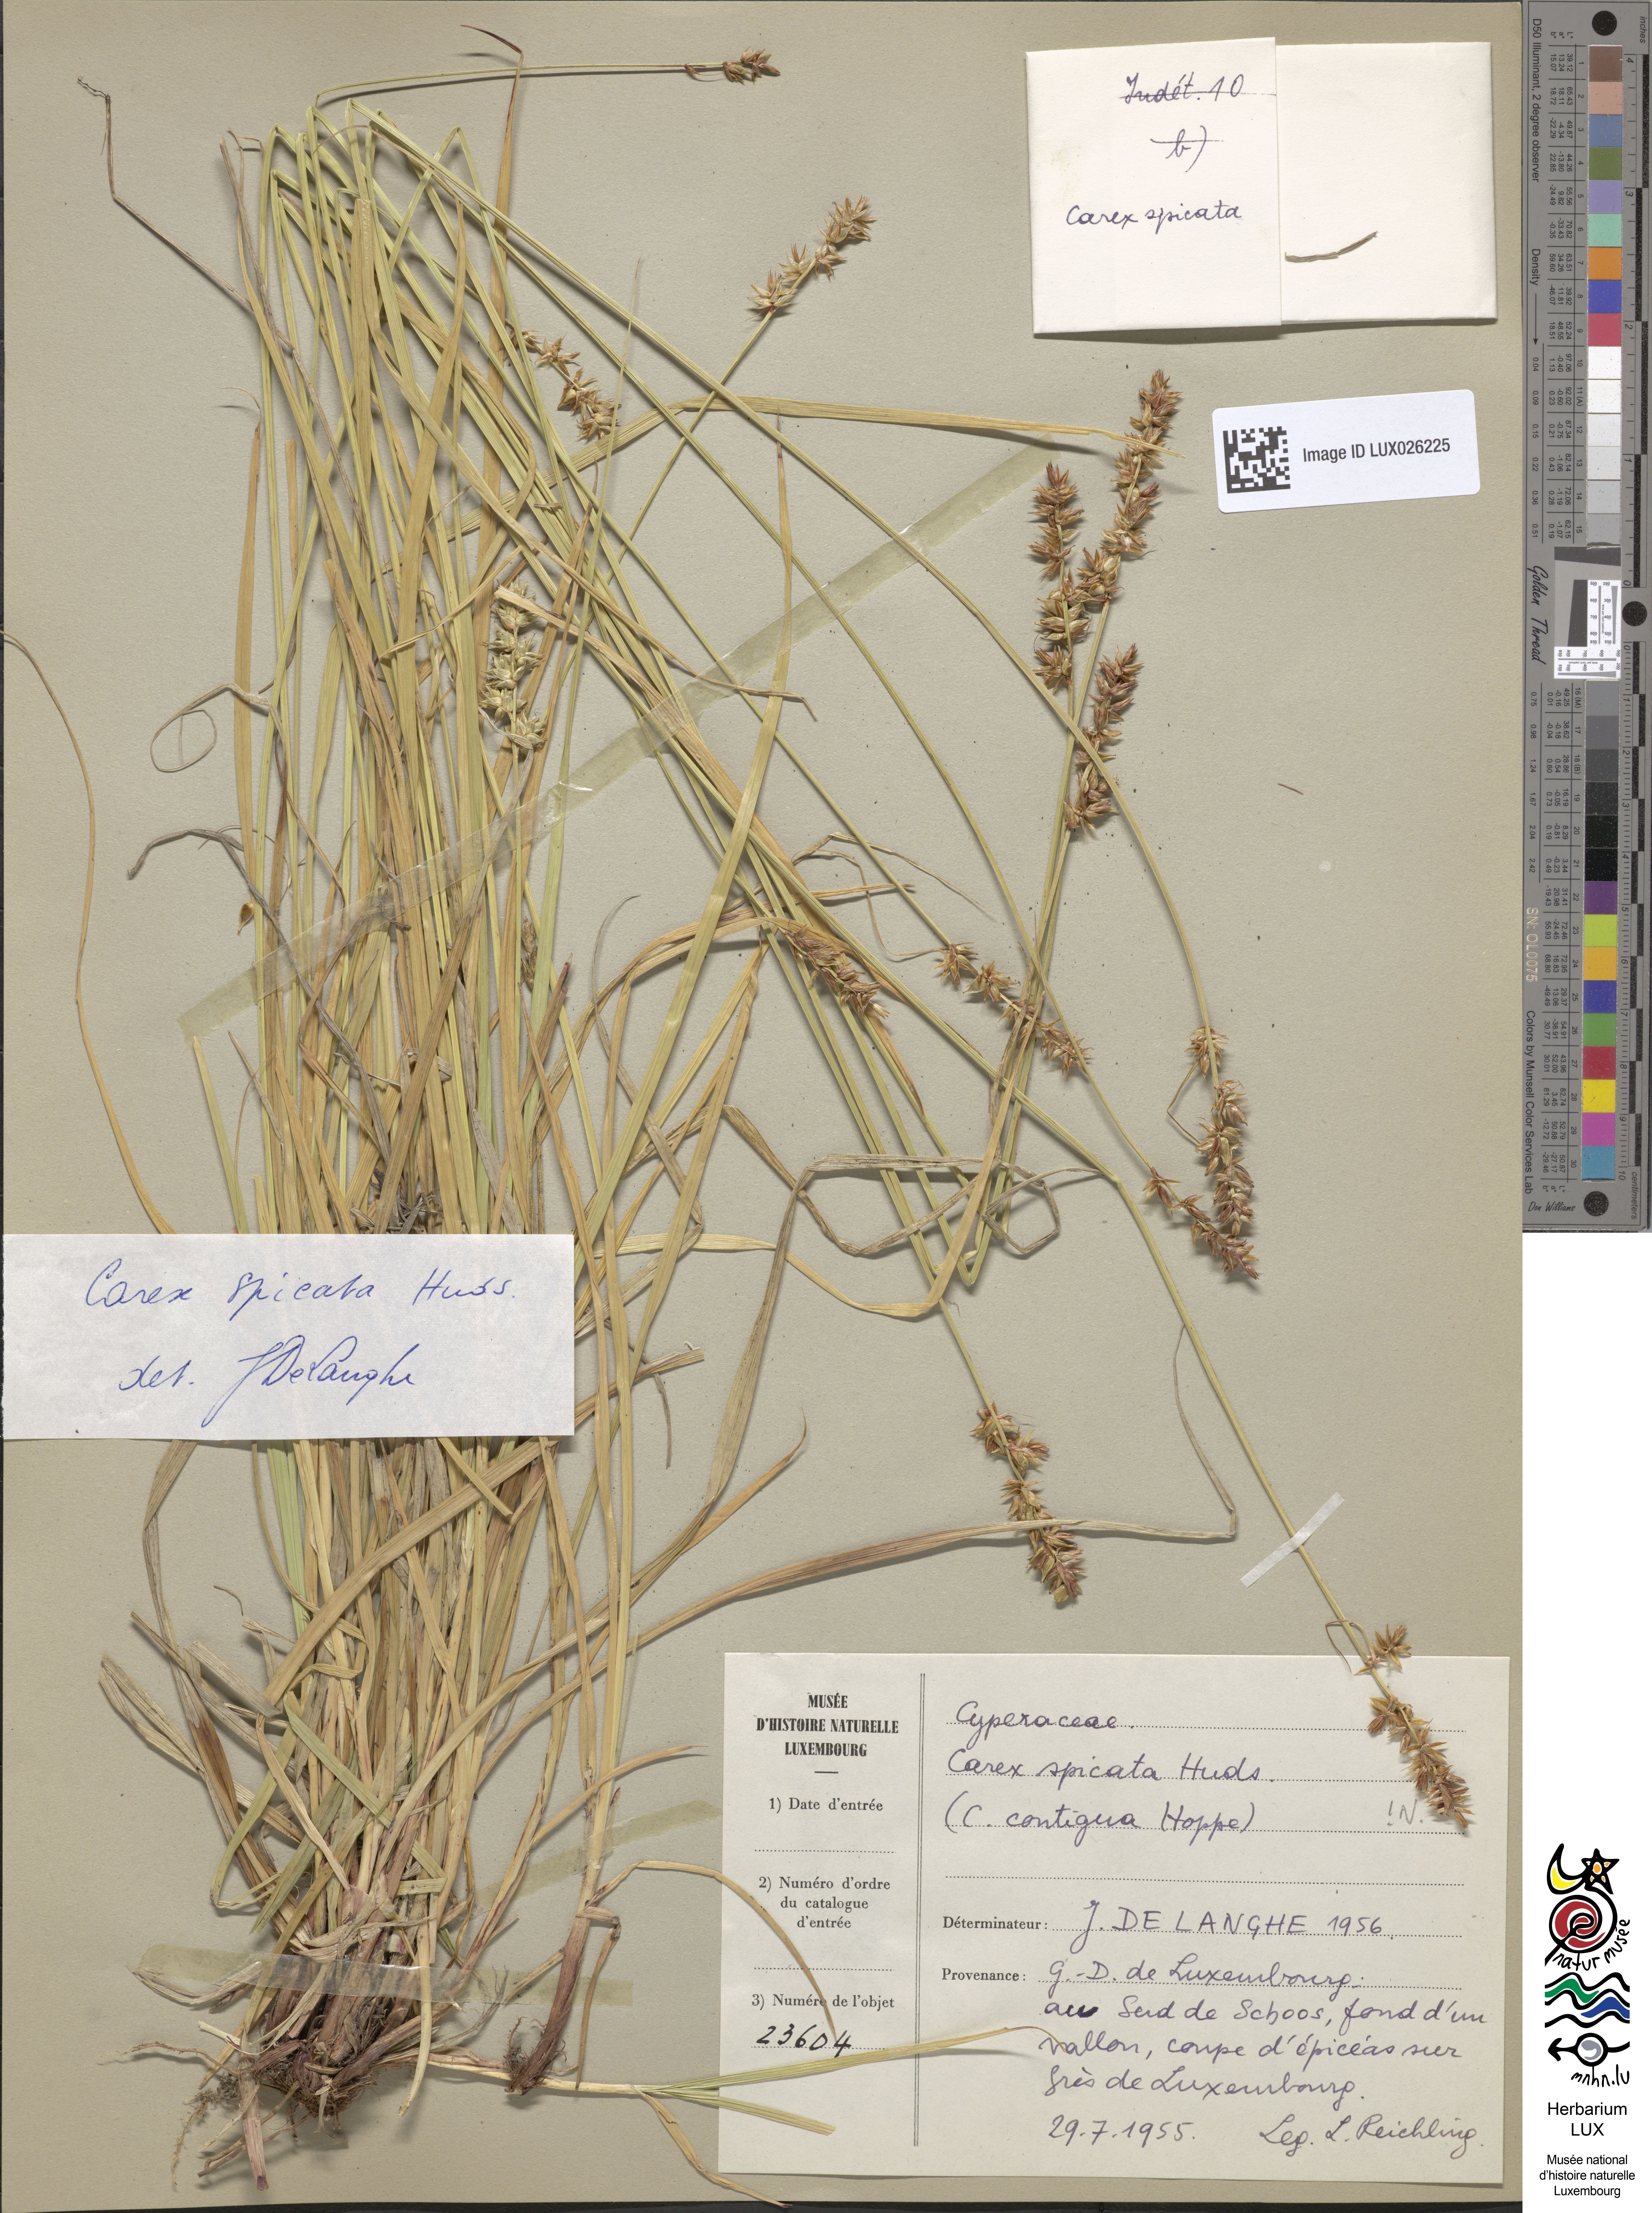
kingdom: Plantae
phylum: Tracheophyta
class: Liliopsida
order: Poales
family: Cyperaceae
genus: Carex
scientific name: Carex spicata
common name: Spiked sedge
